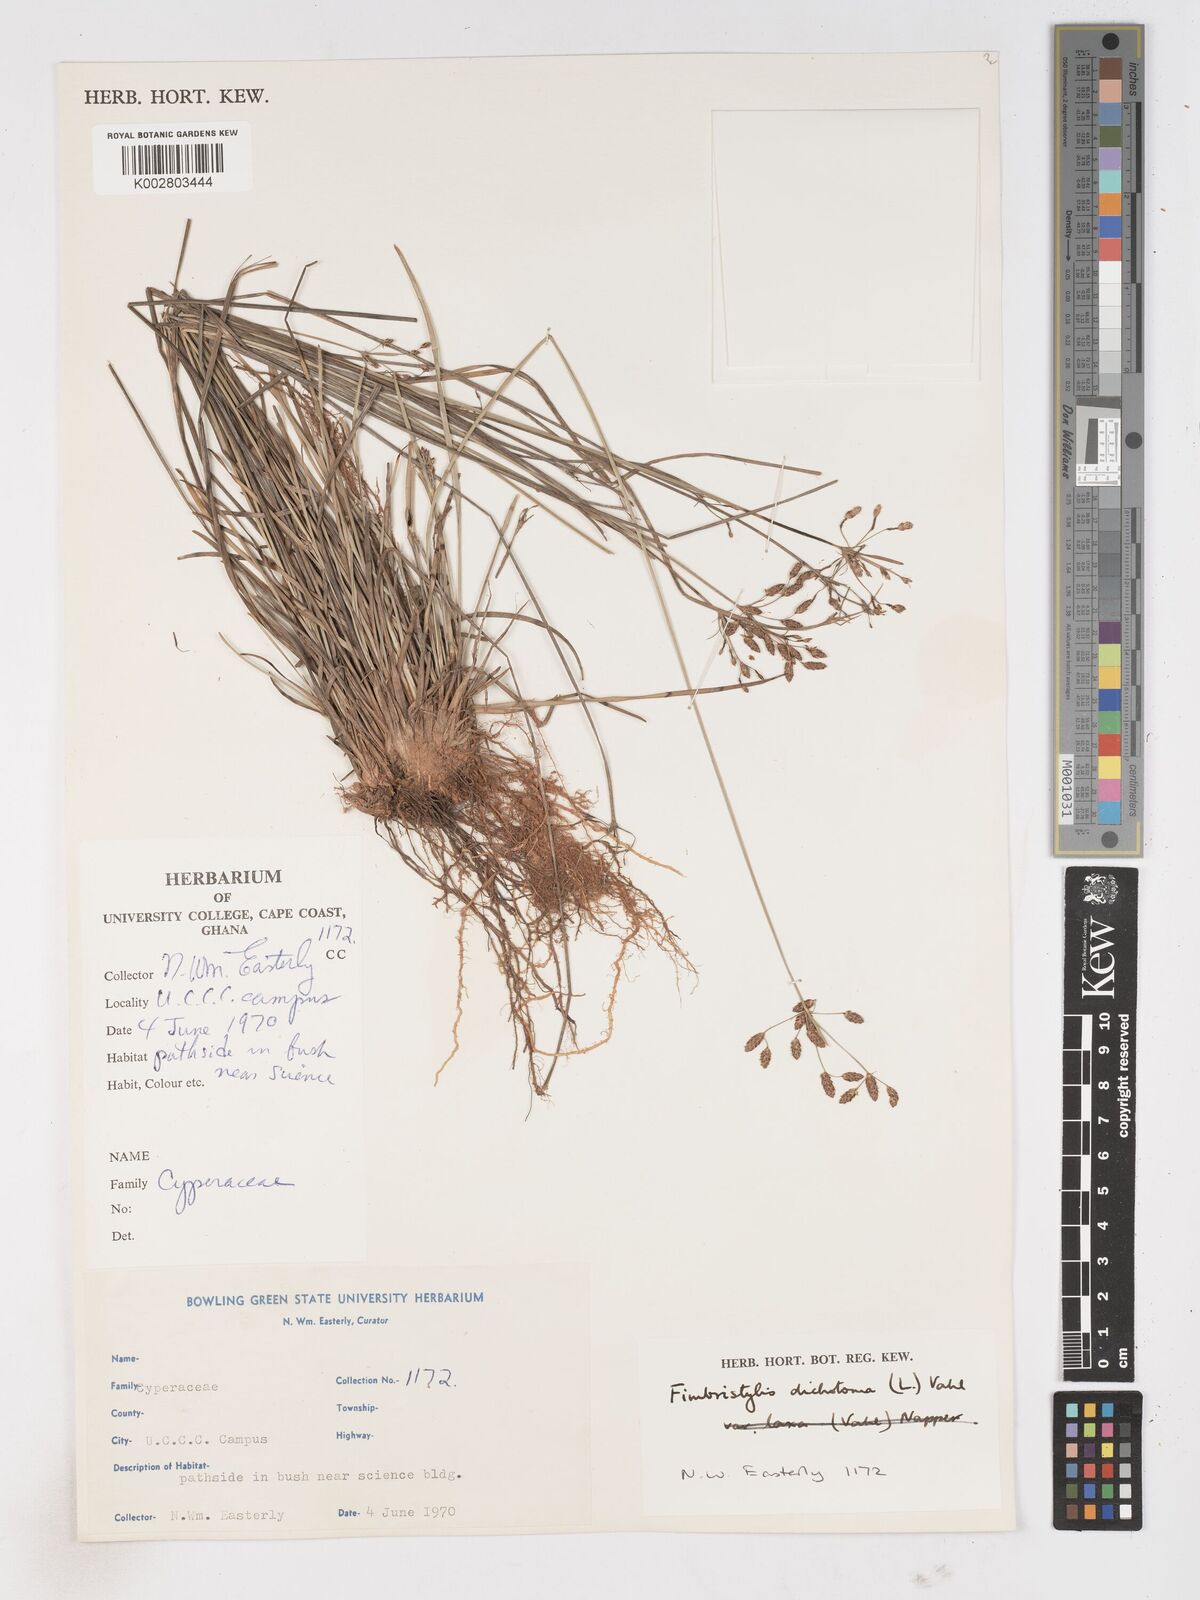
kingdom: Plantae
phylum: Tracheophyta
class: Liliopsida
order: Poales
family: Cyperaceae
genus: Fimbristylis
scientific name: Fimbristylis dichotoma
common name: Forked fimbry
